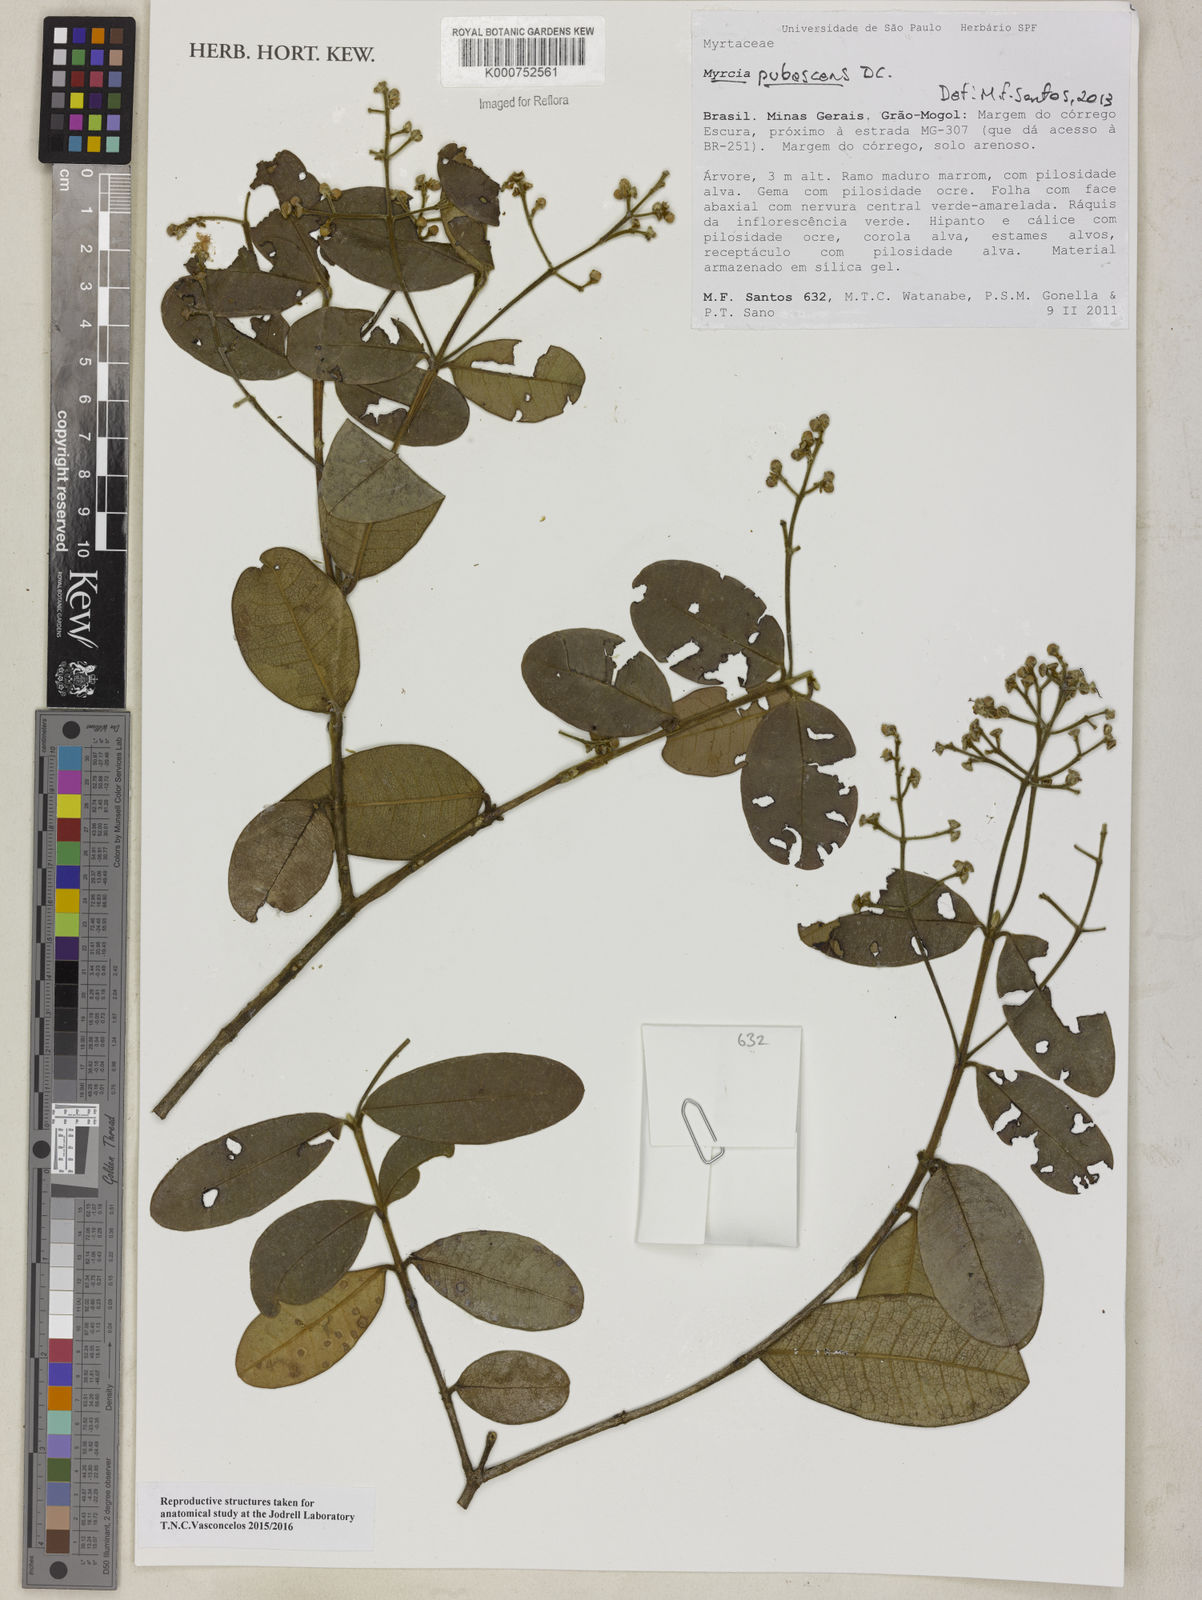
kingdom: Plantae
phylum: Tracheophyta
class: Magnoliopsida
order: Myrtales
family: Myrtaceae
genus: Myrcia
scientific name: Myrcia pubescens
